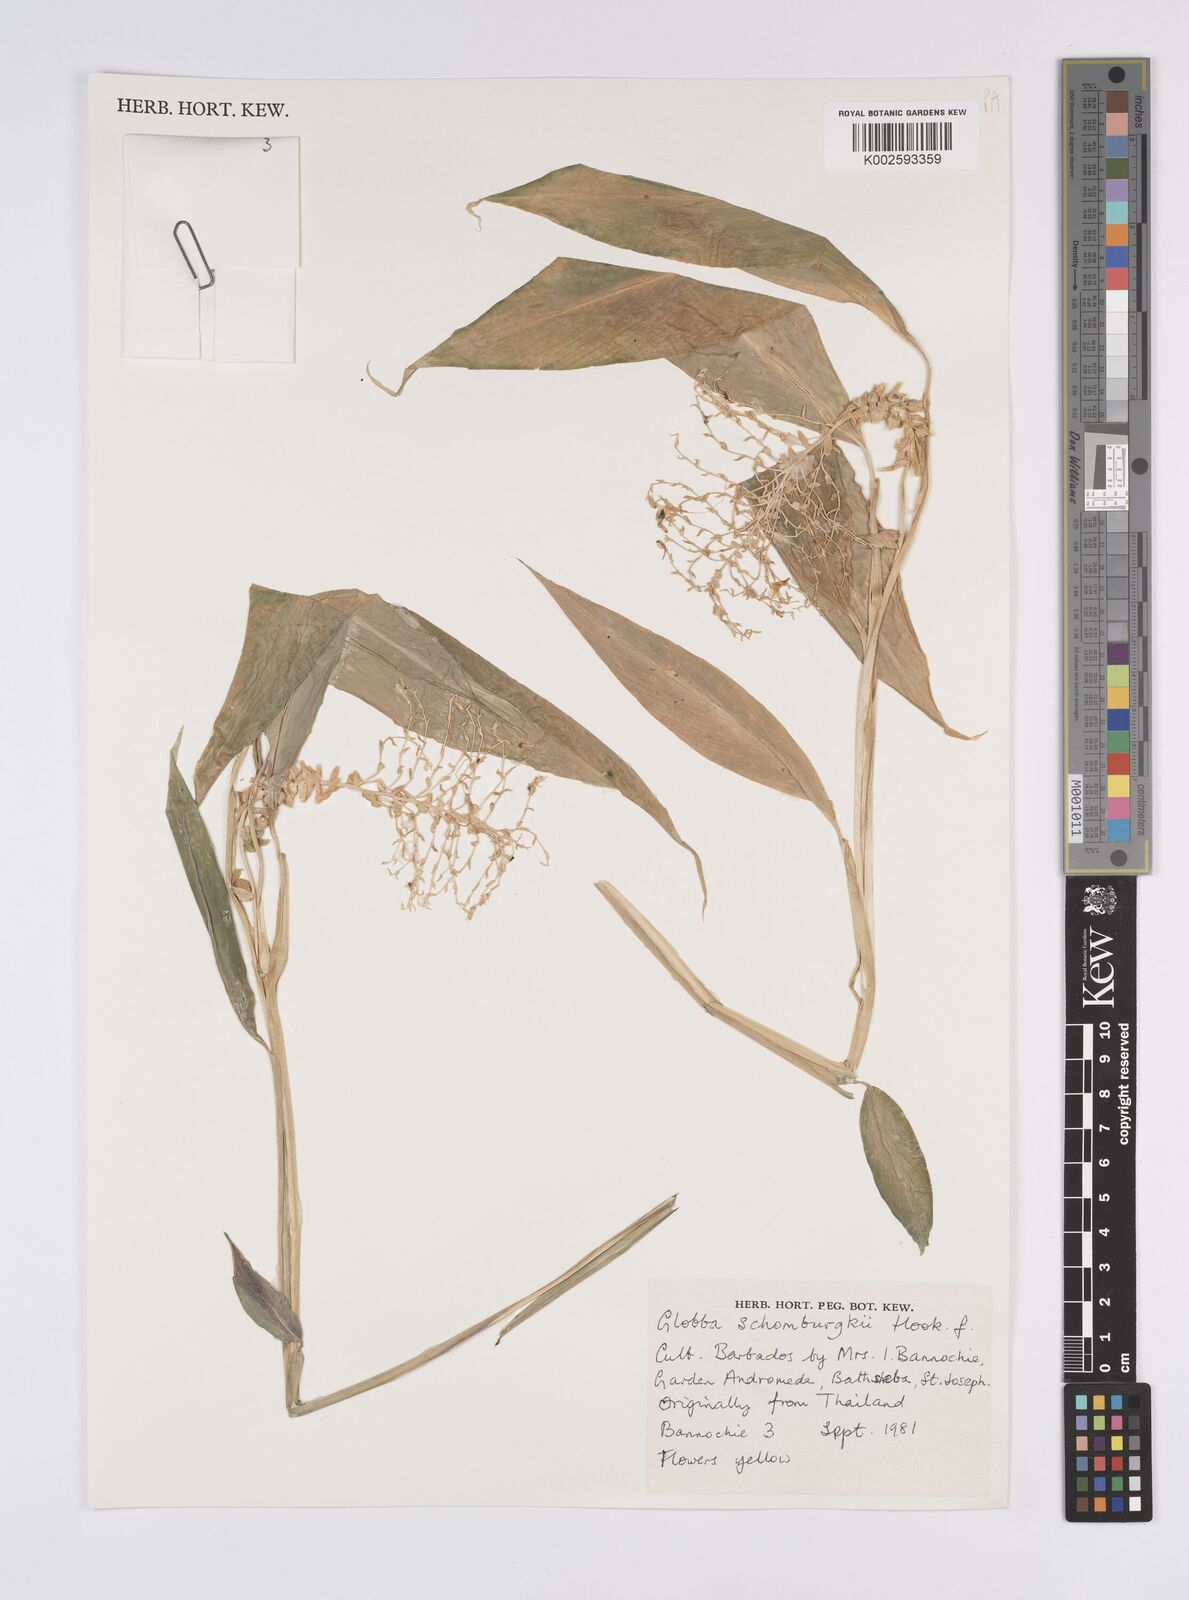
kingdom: Plantae
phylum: Tracheophyta
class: Liliopsida
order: Zingiberales
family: Zingiberaceae
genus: Globba
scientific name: Globba schomburgkii
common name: Dancing girl ginger
